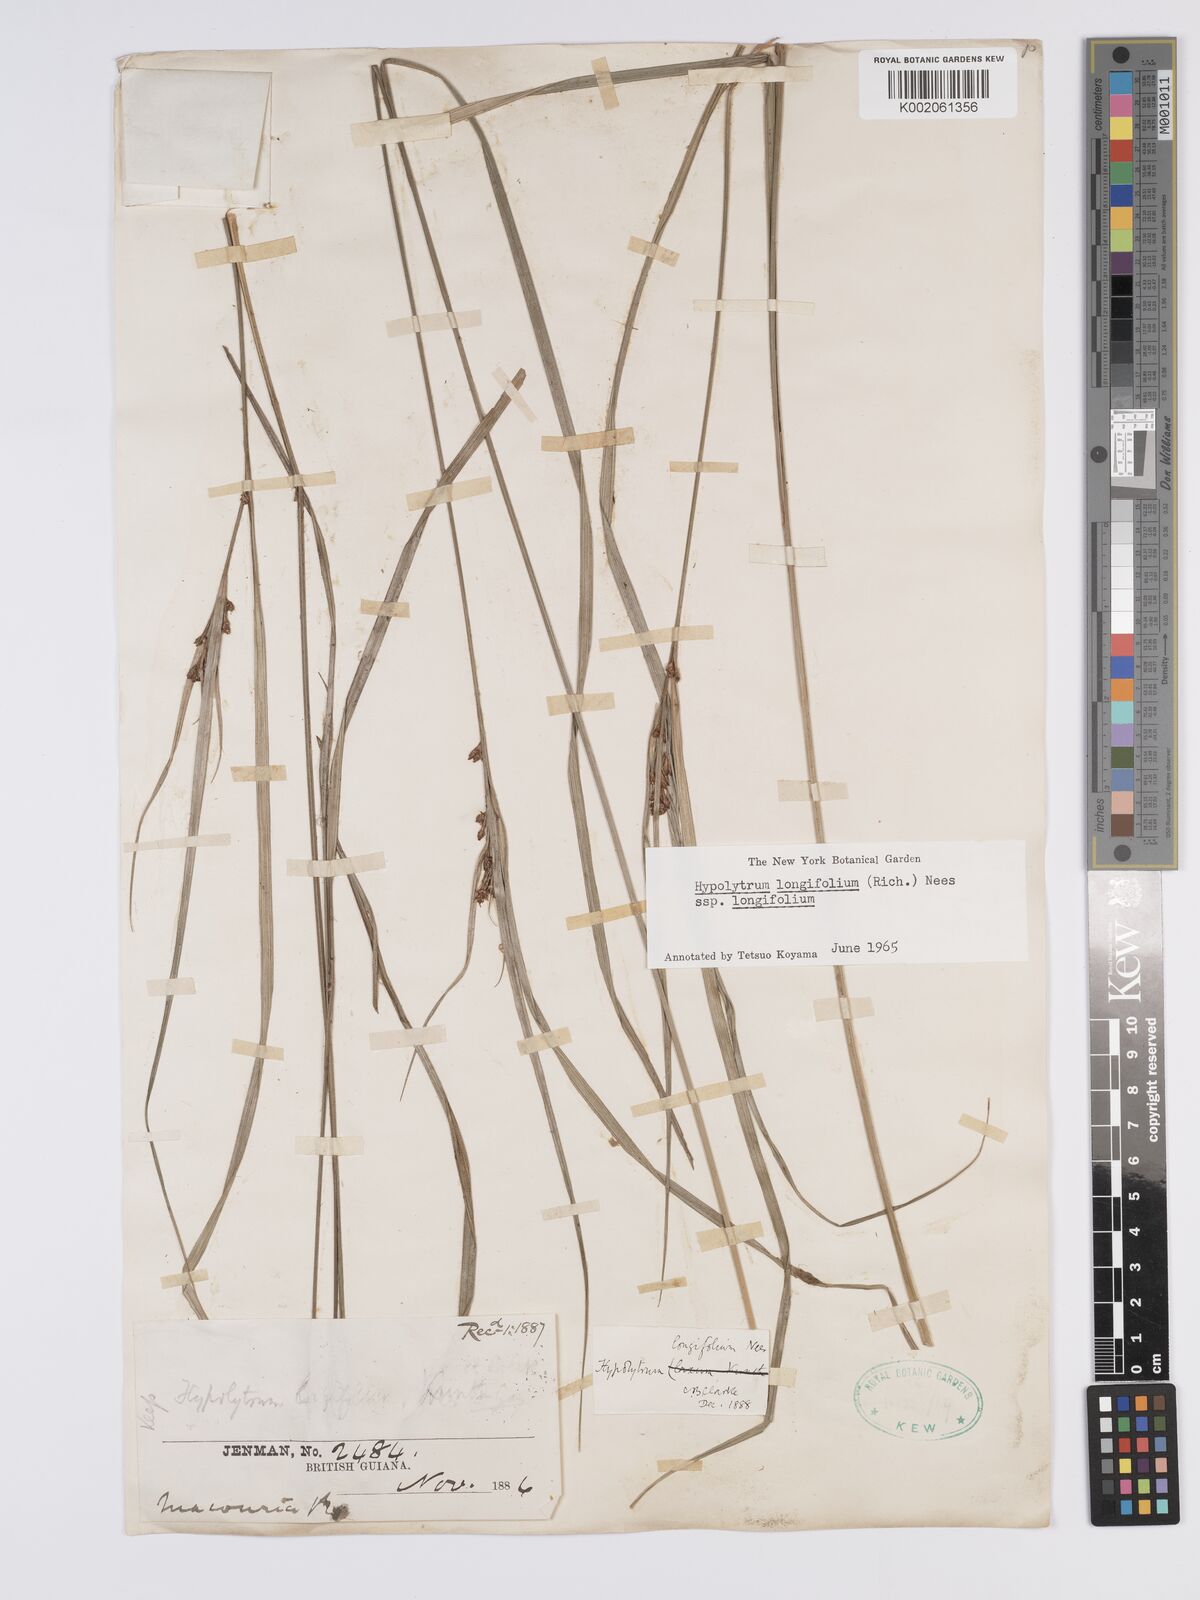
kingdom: Plantae
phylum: Tracheophyta
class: Liliopsida
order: Poales
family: Cyperaceae
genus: Hypolytrum
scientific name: Hypolytrum longifolium
